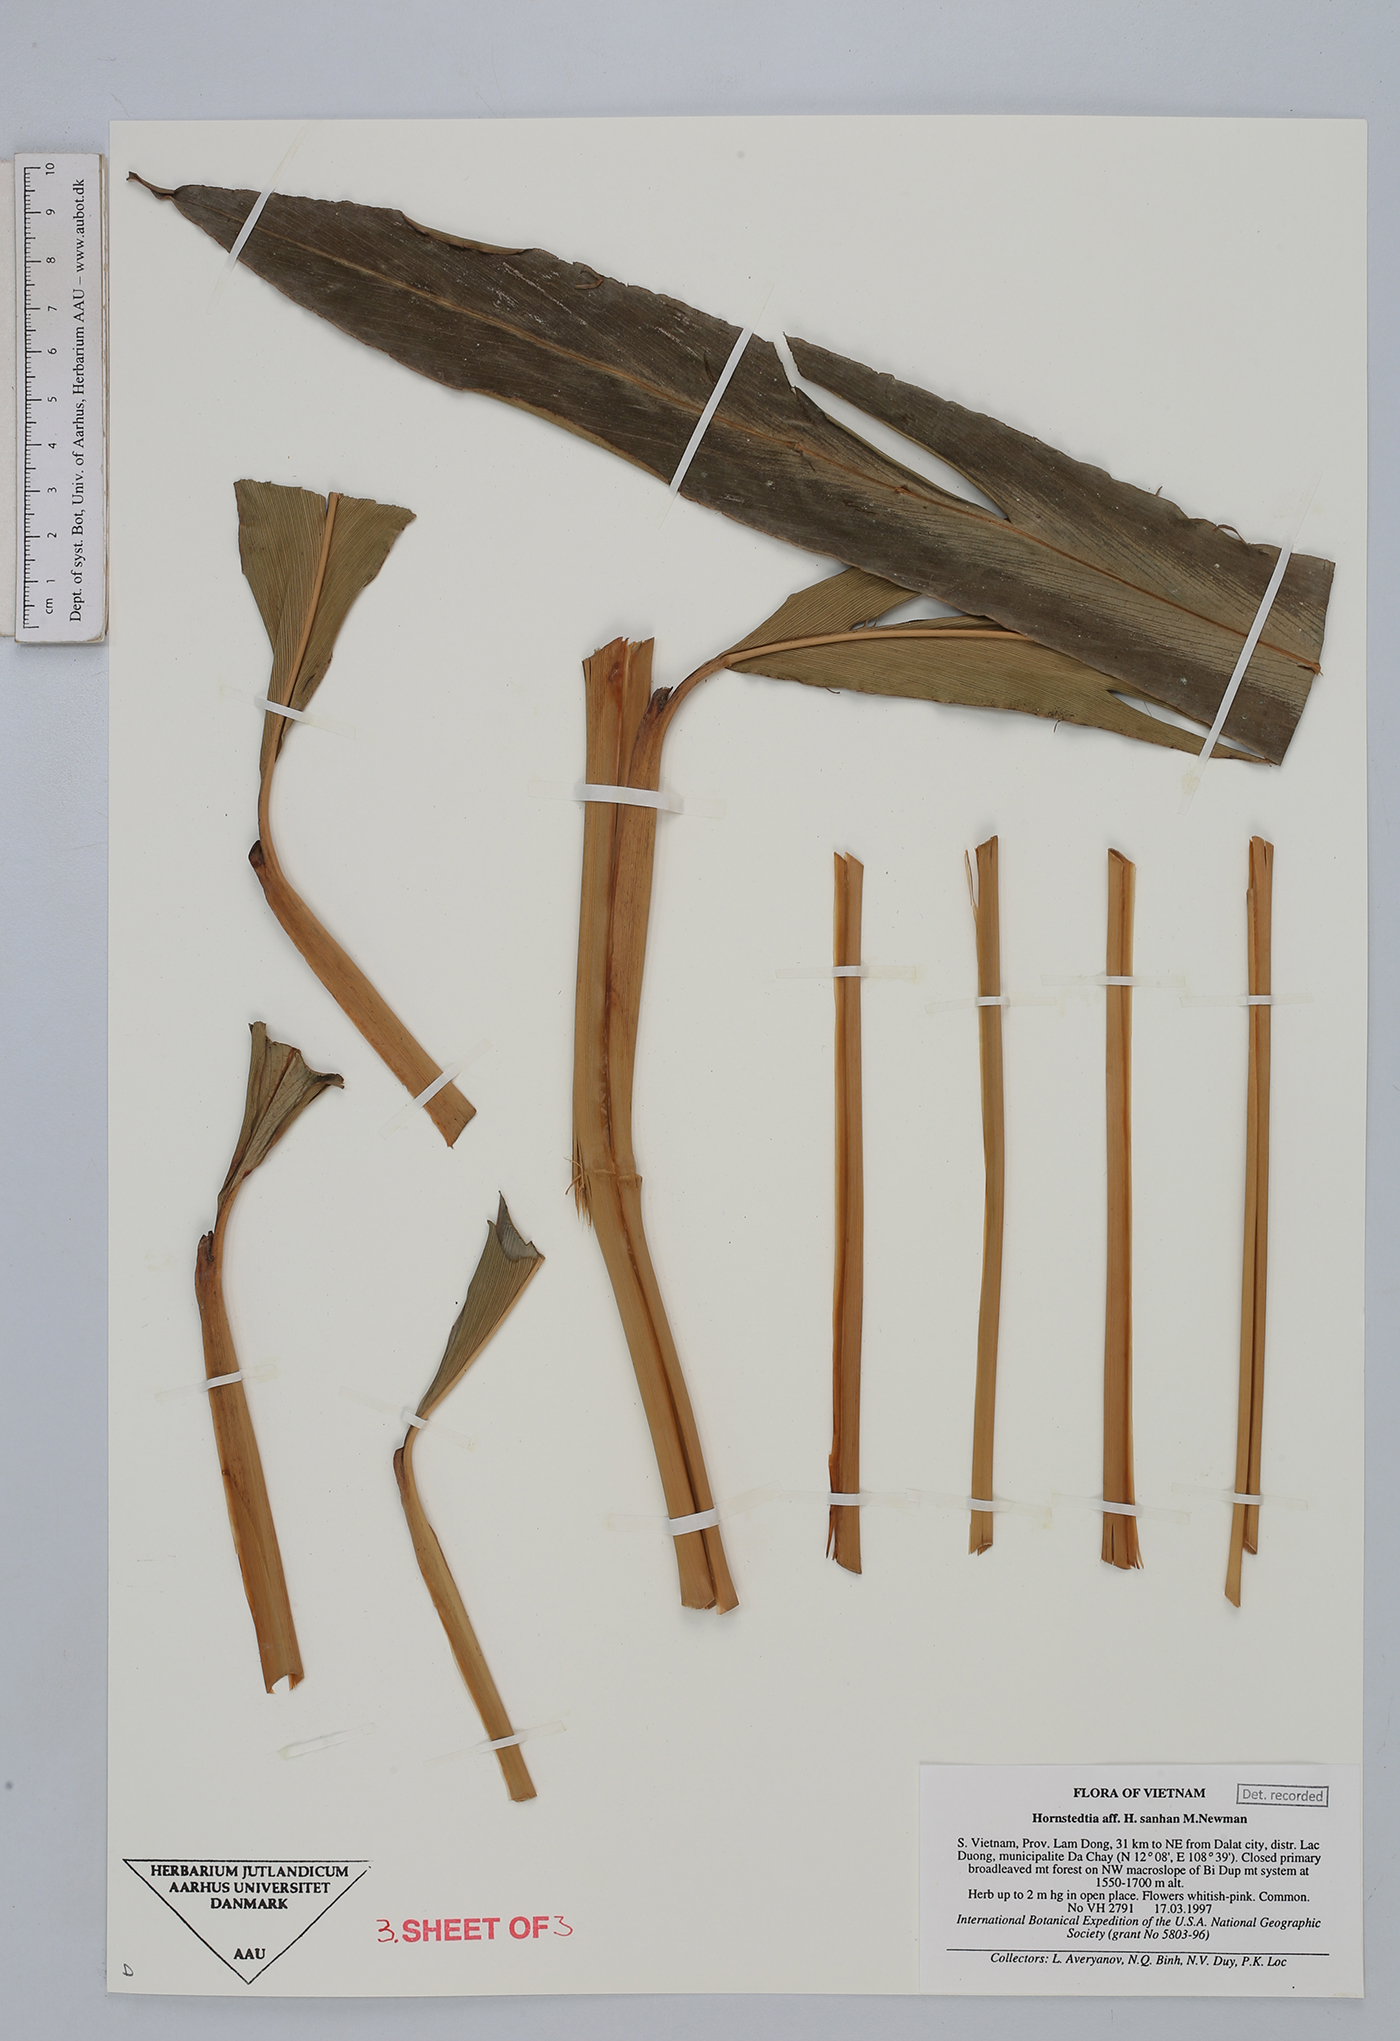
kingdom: Plantae
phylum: Tracheophyta
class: Liliopsida
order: Zingiberales
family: Zingiberaceae
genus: Hornstedtia
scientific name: Hornstedtia sanhan
